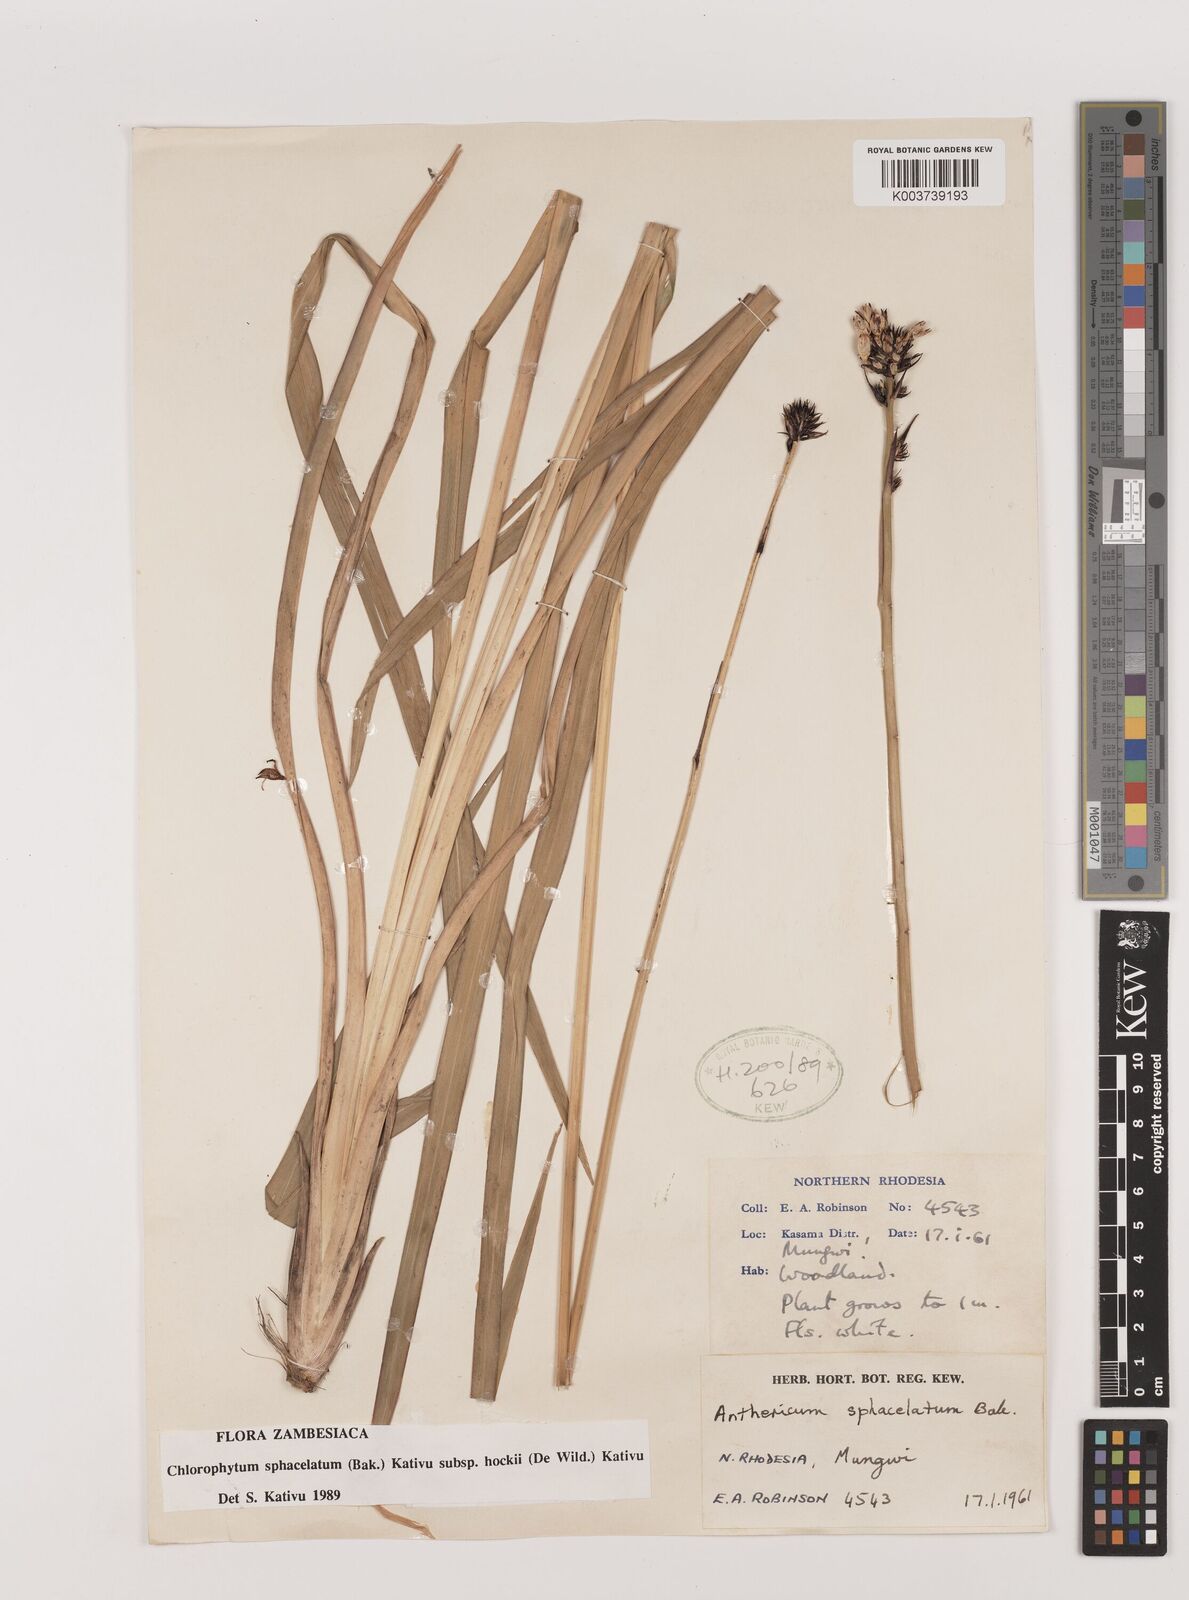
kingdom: Plantae
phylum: Tracheophyta
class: Liliopsida
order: Asparagales
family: Asparagaceae
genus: Chlorophytum
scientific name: Chlorophytum sphacelatum
